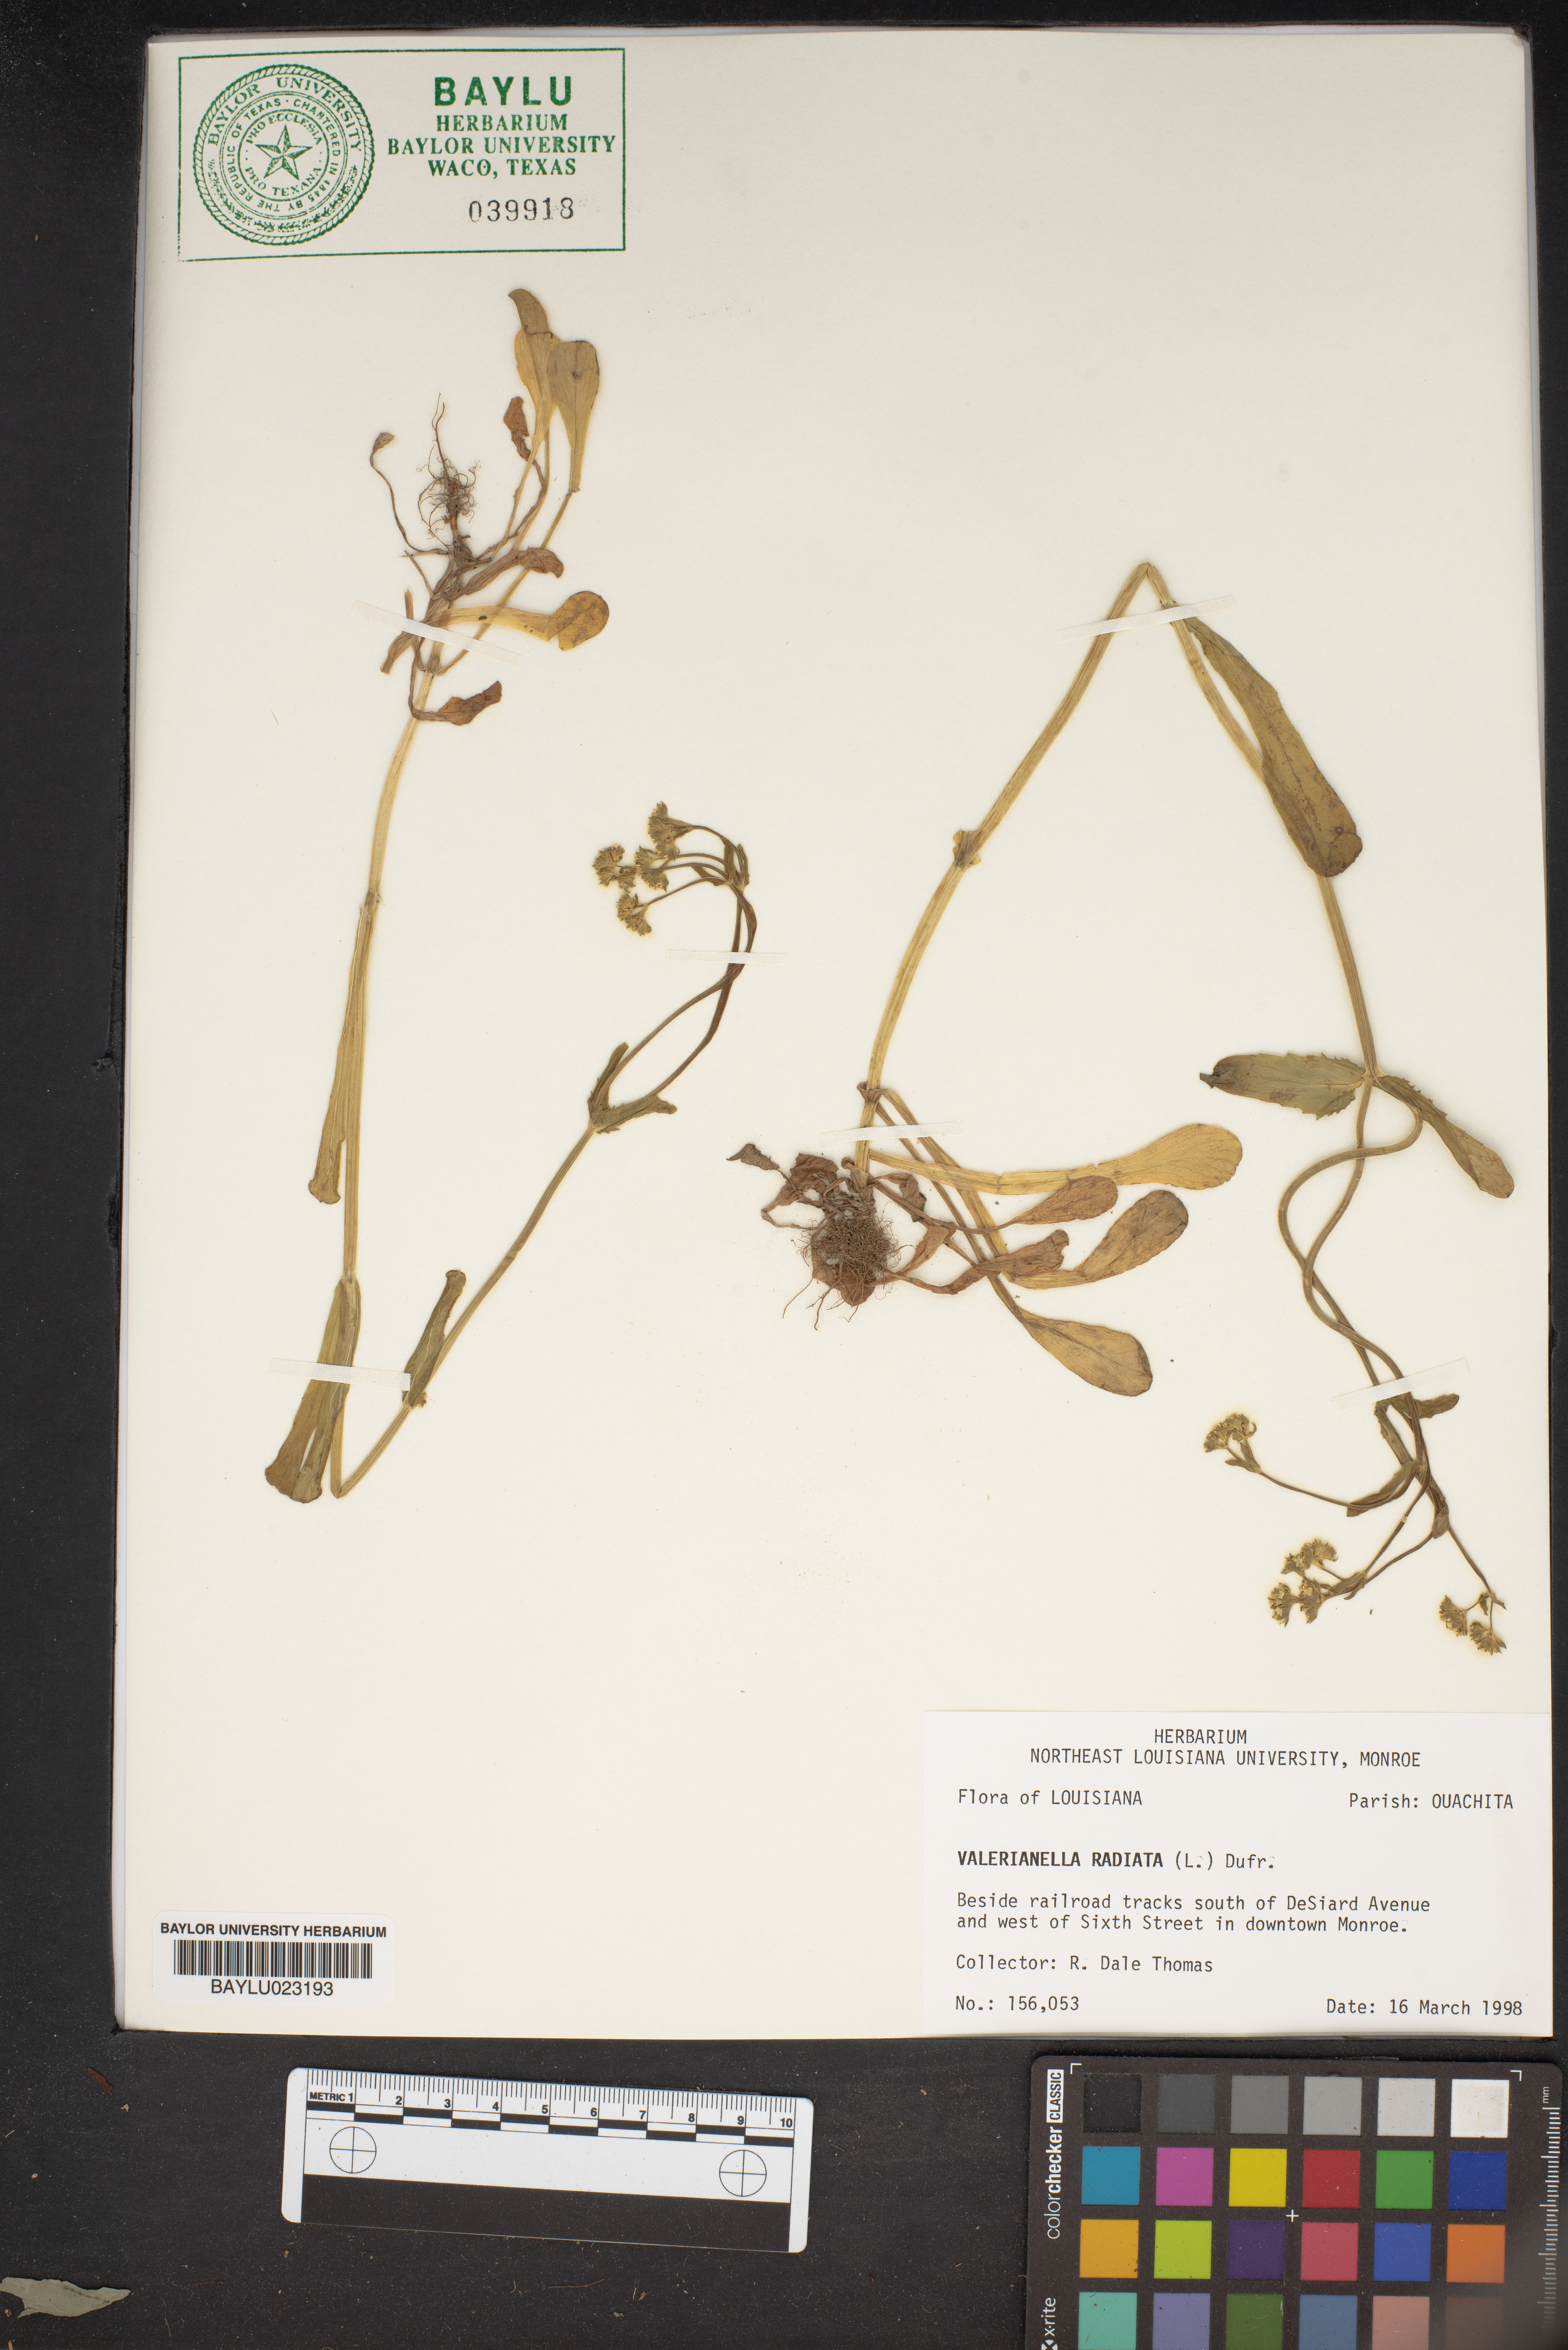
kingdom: Plantae
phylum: Tracheophyta
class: Magnoliopsida
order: Dipsacales
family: Caprifoliaceae
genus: Valerianella
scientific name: Valerianella radiata
